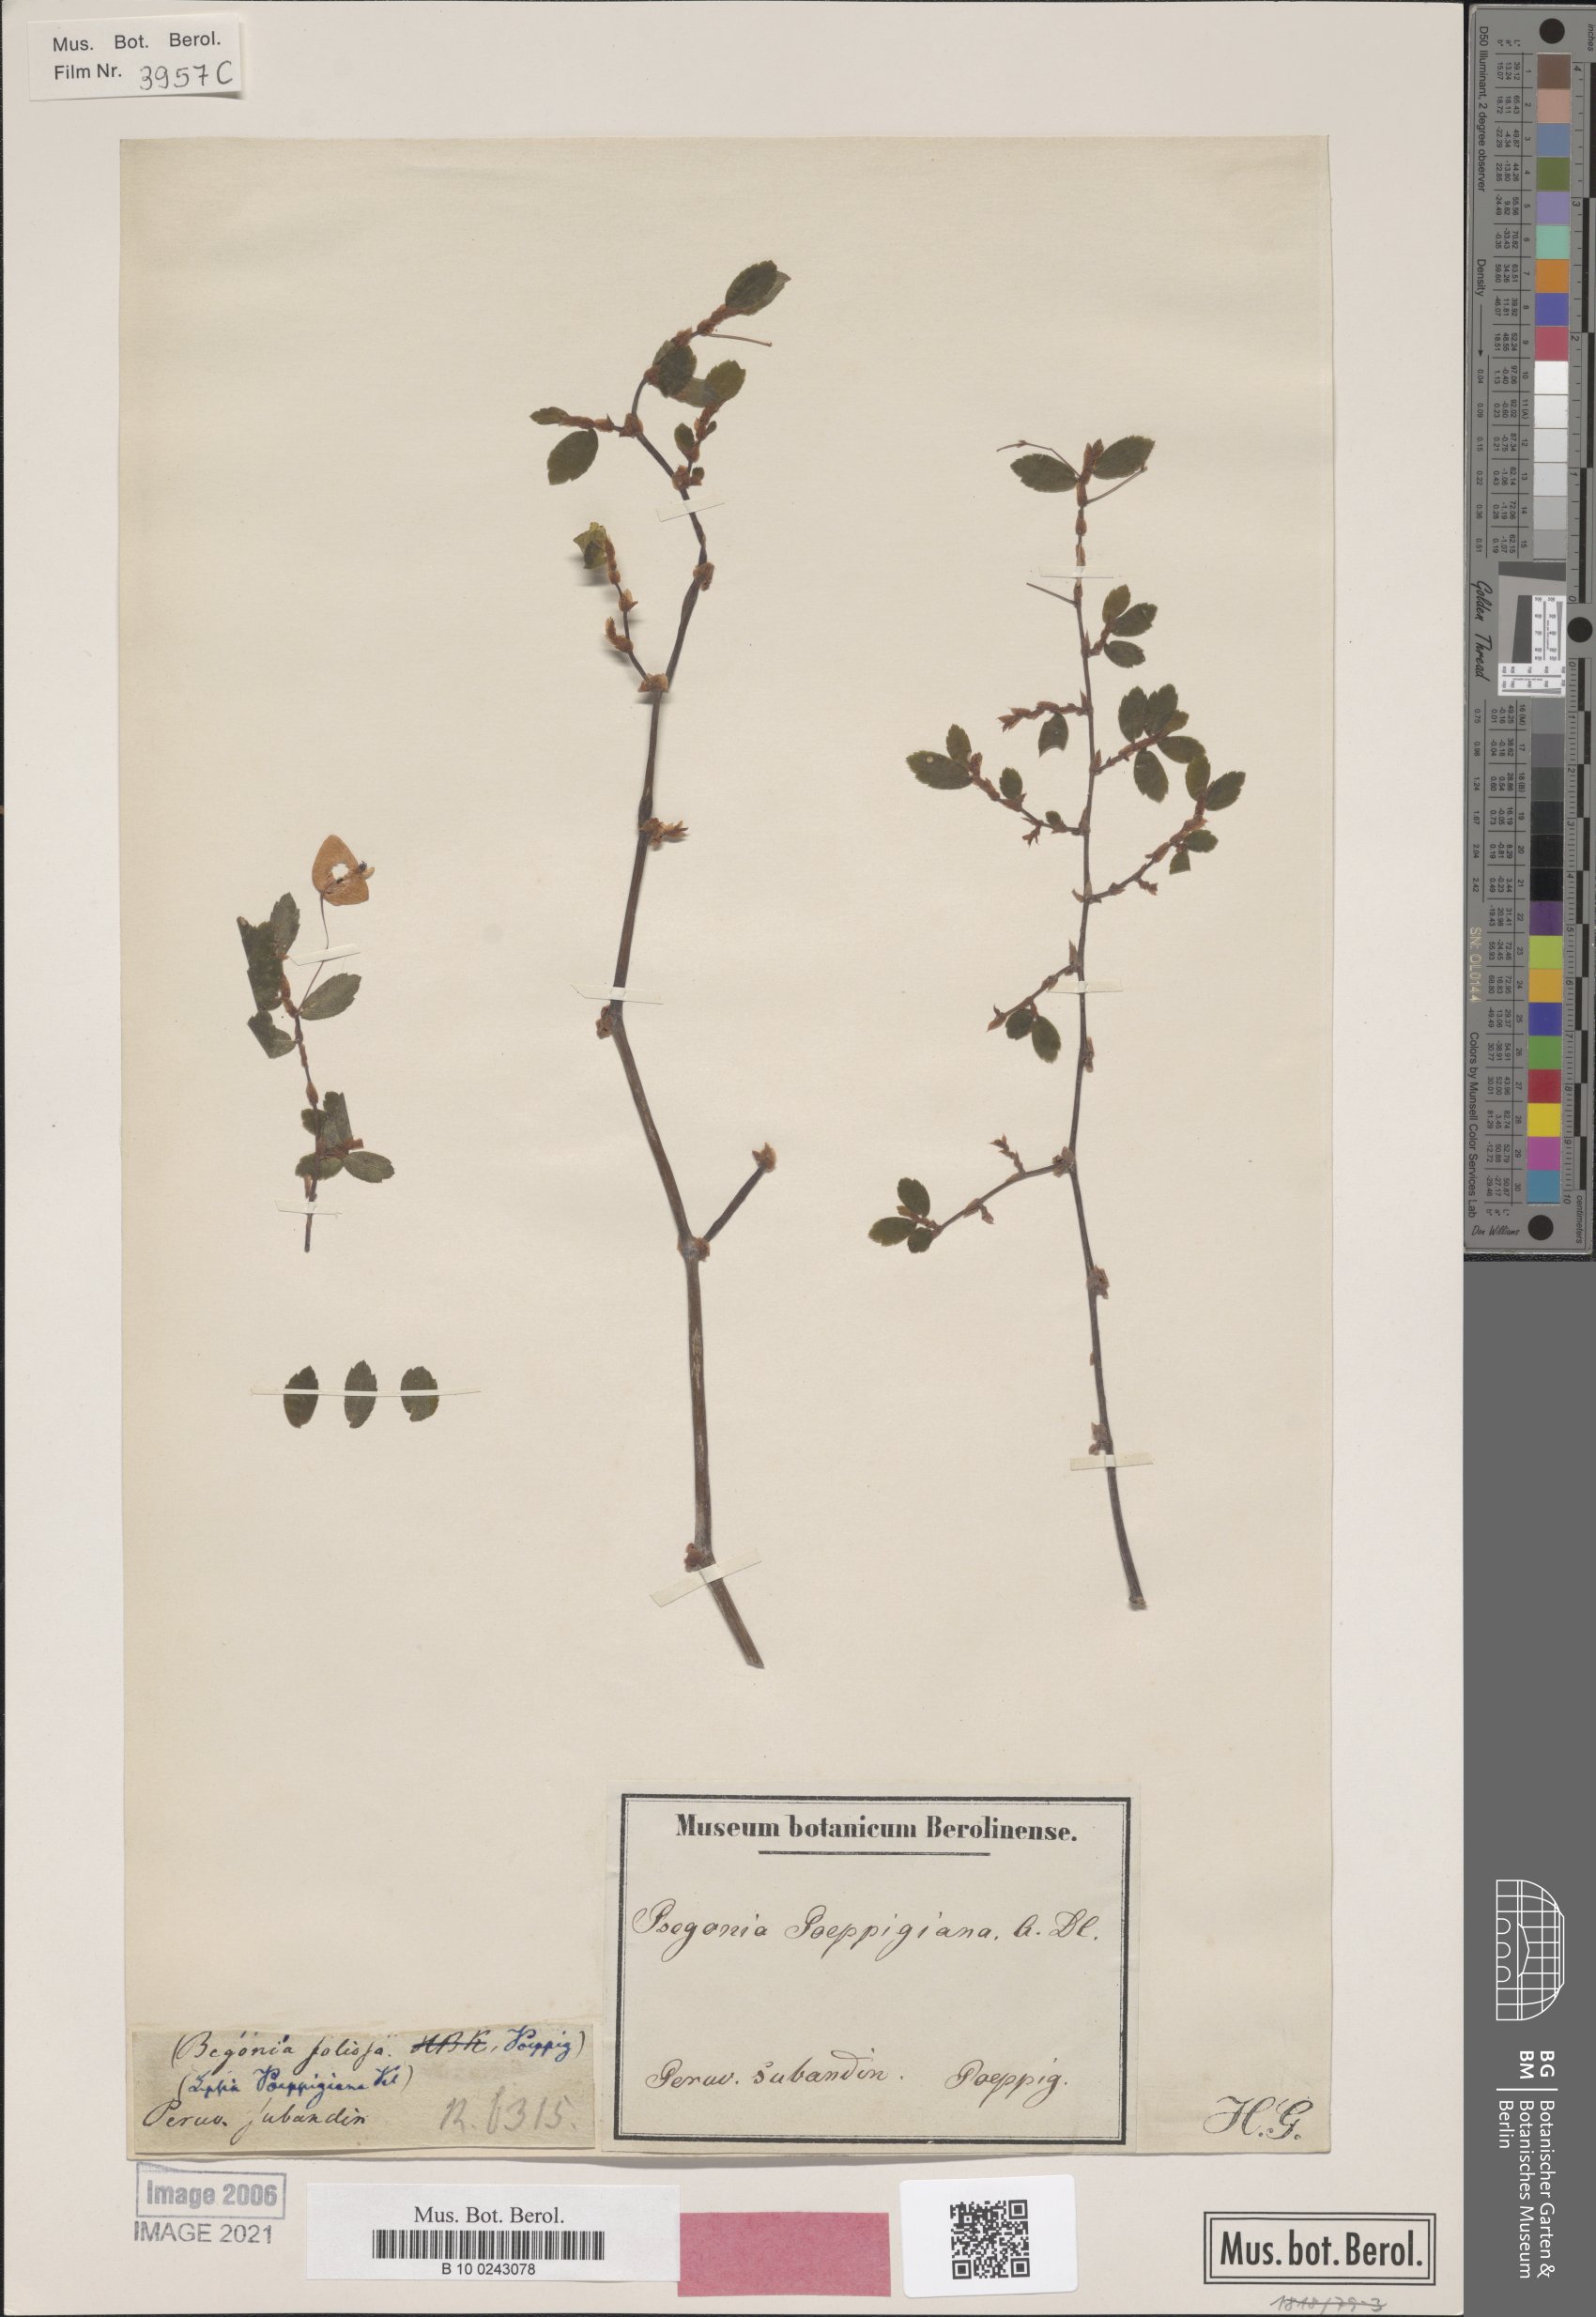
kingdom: Plantae
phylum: Tracheophyta
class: Magnoliopsida
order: Cucurbitales
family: Begoniaceae
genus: Begonia
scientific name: Begonia foliosa
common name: Fern begonia
